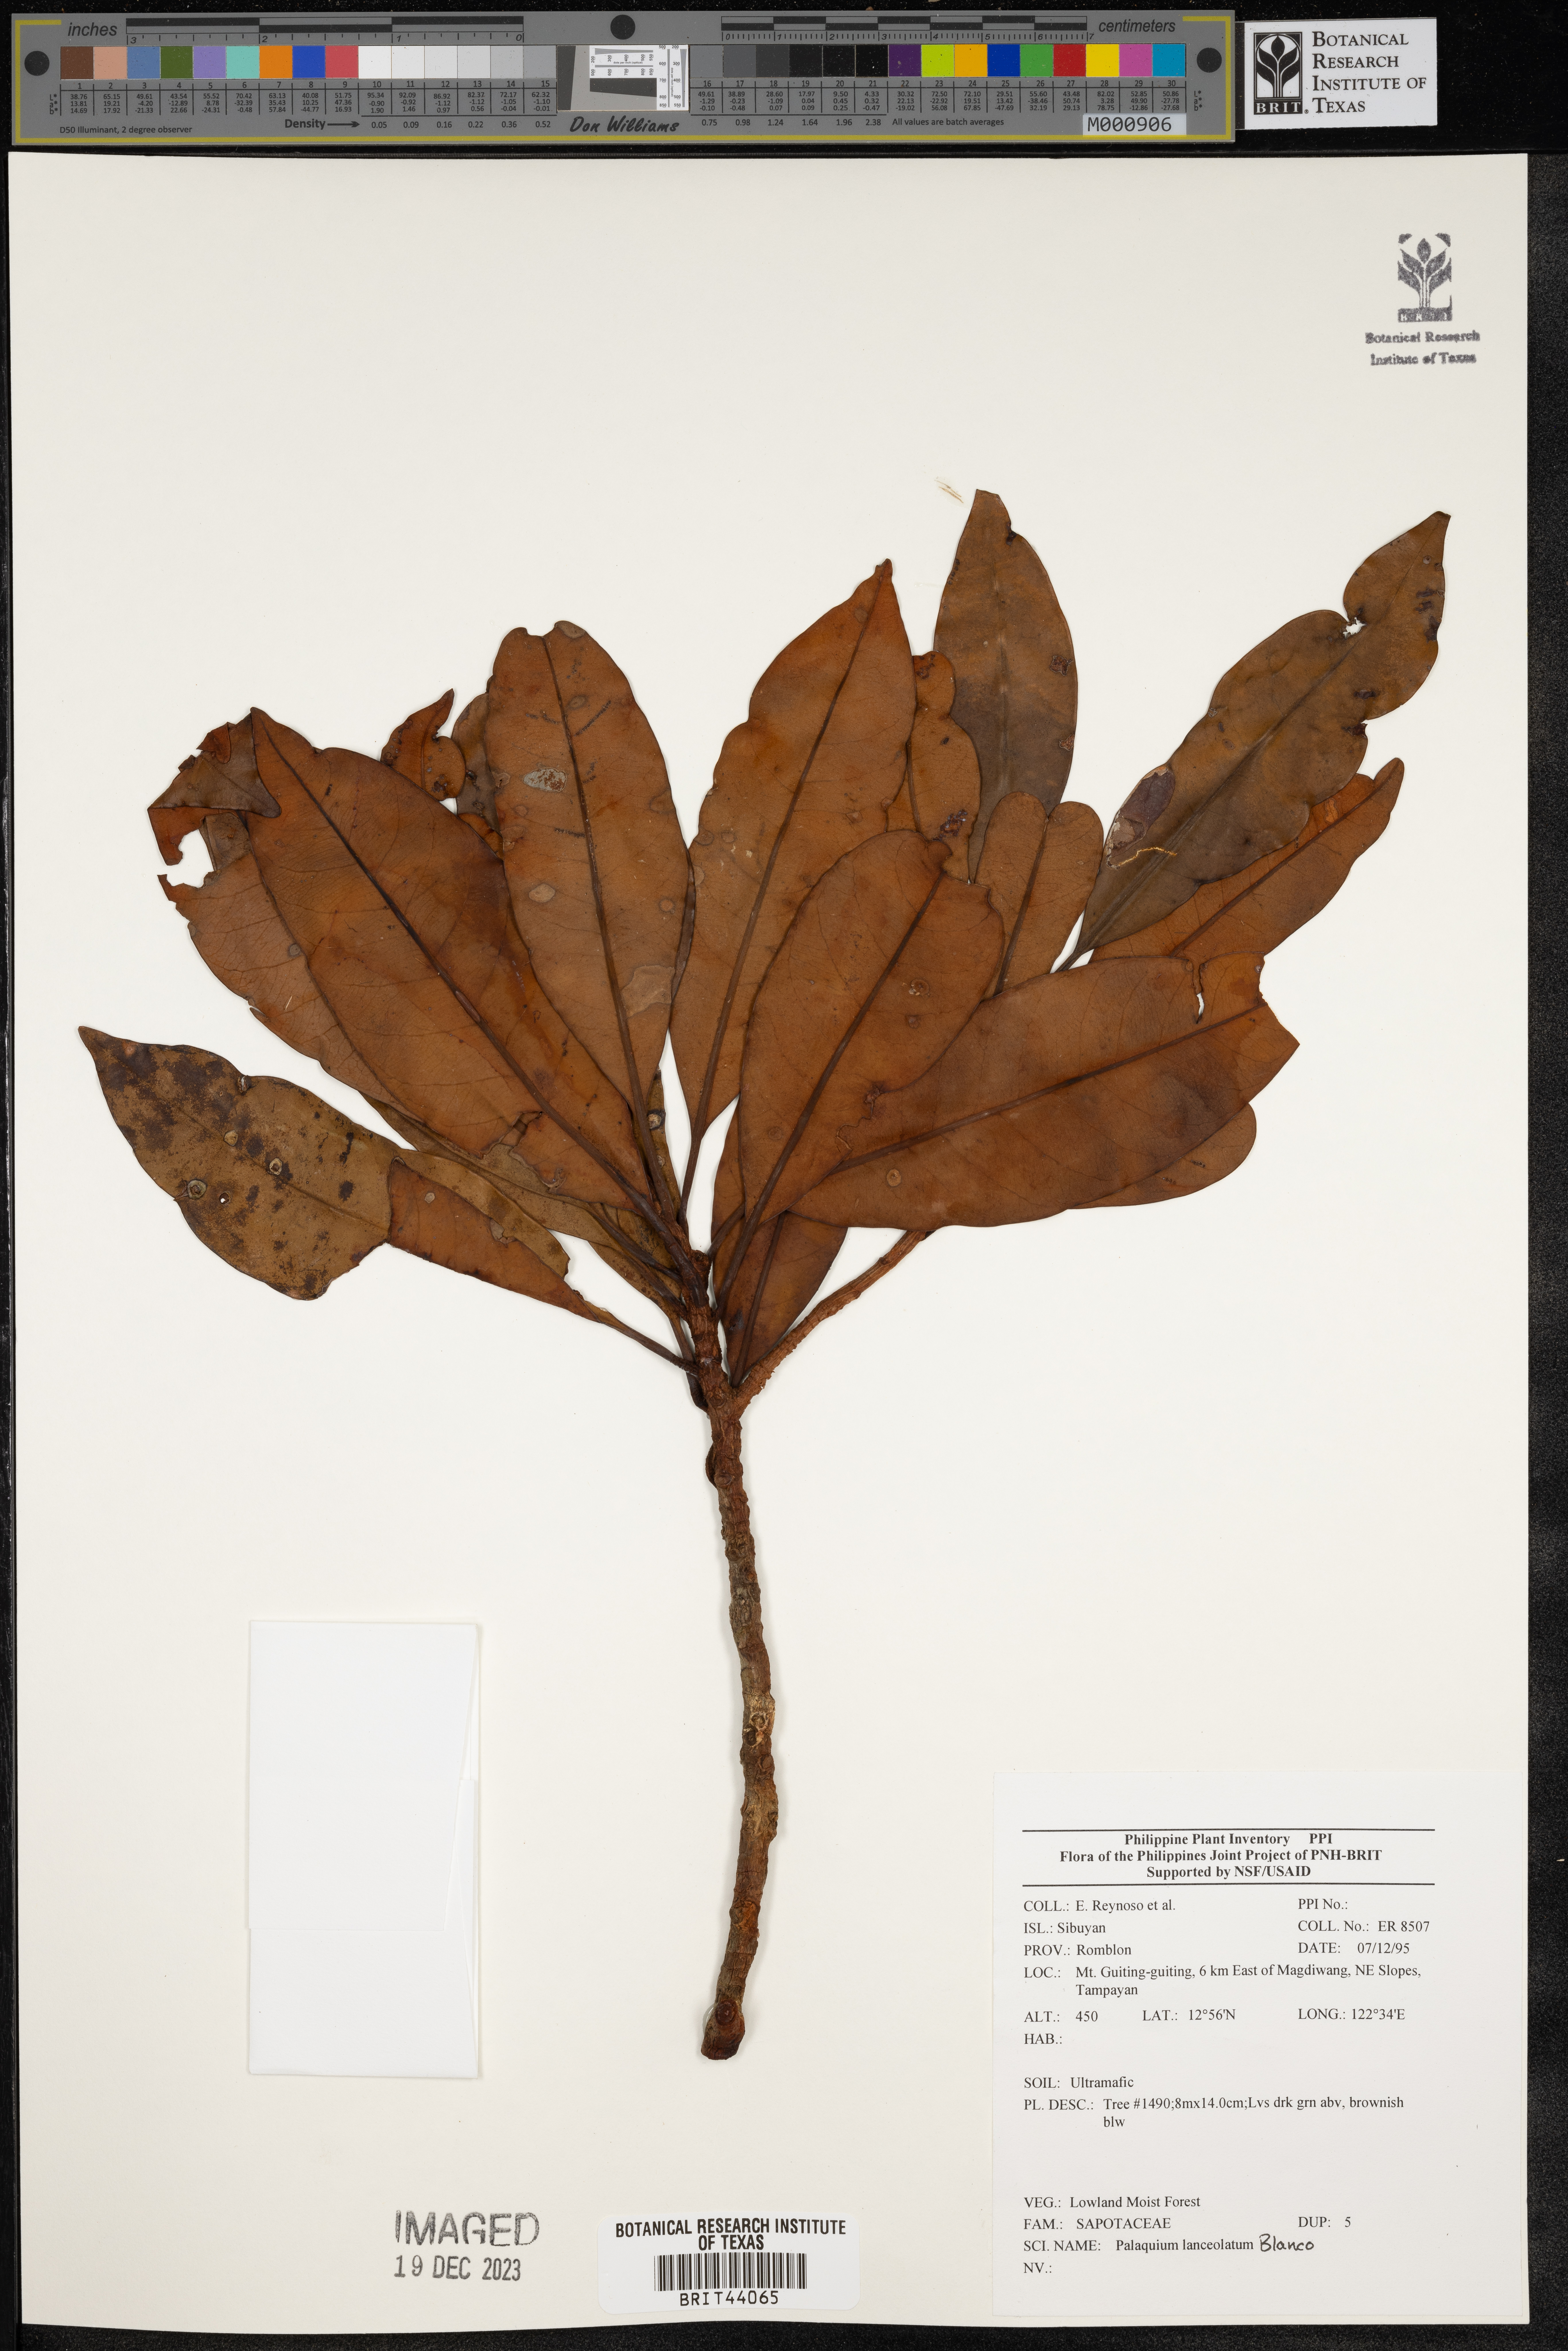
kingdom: Plantae
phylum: Tracheophyta
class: Magnoliopsida
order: Ericales
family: Sapotaceae
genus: Palaquium
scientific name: Palaquium lanceolatum
